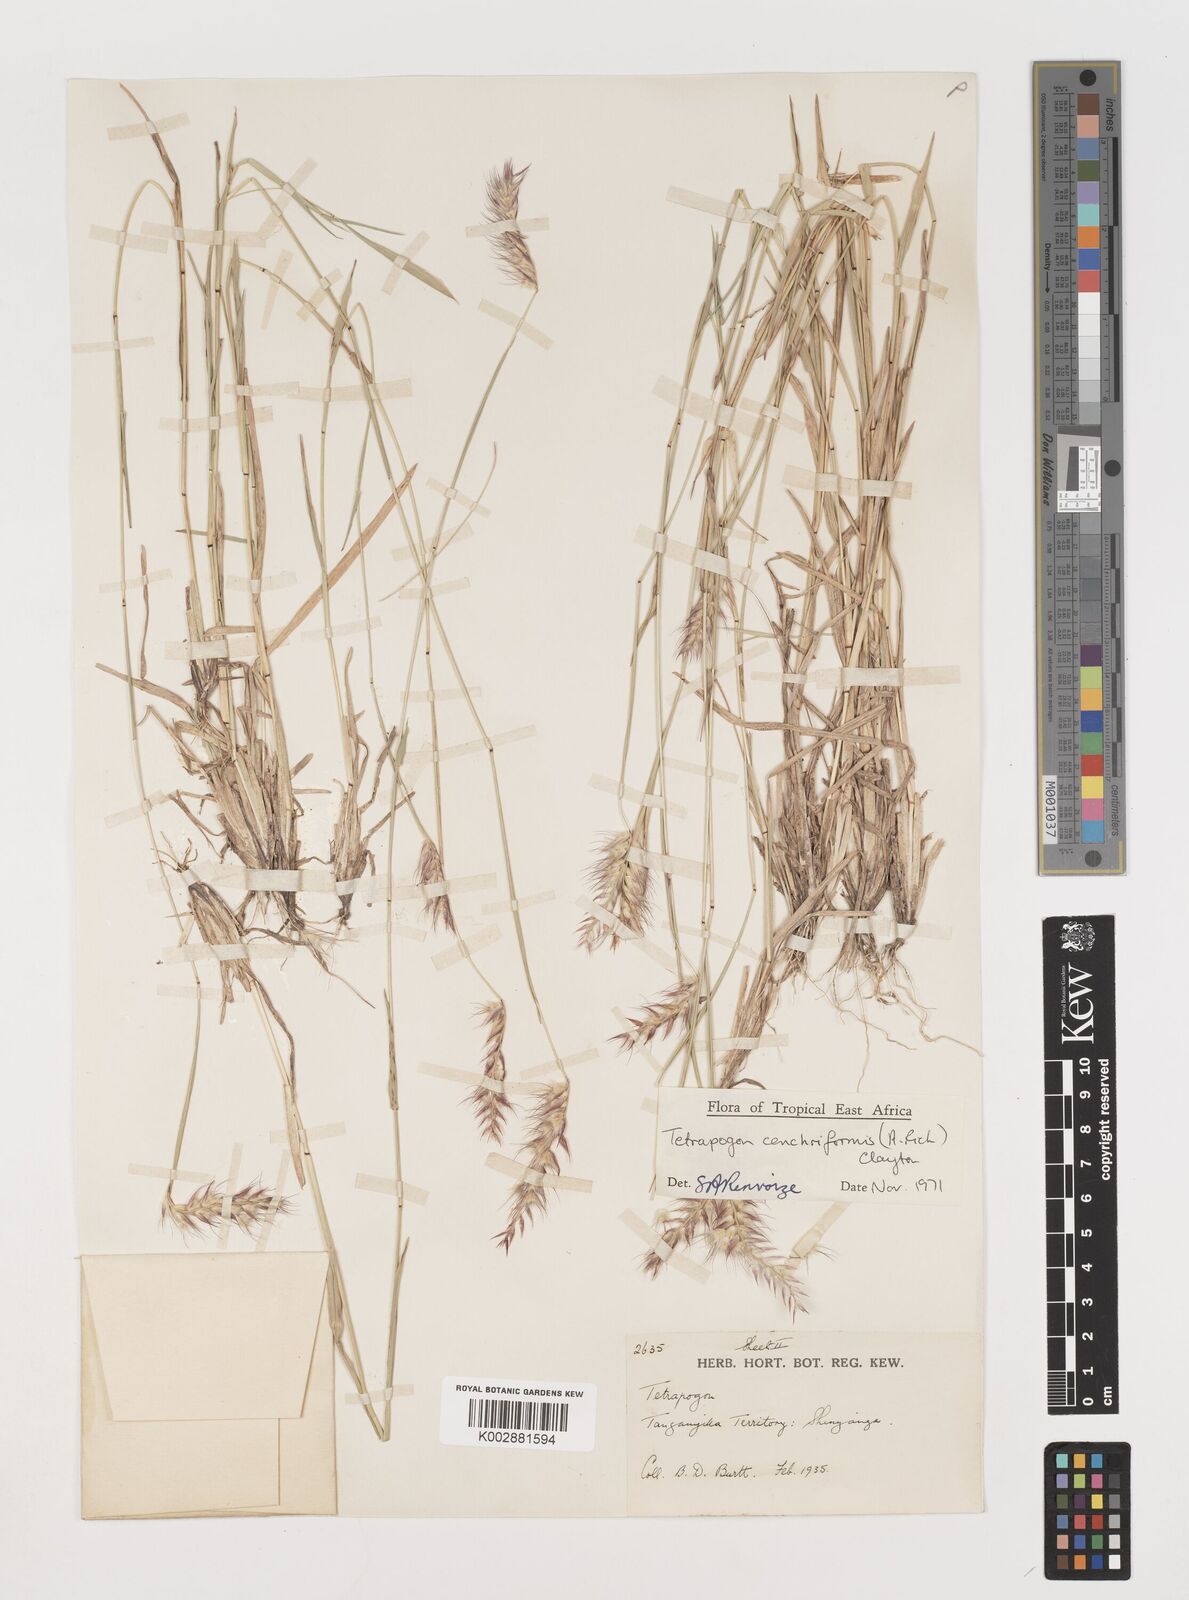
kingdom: Plantae
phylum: Tracheophyta
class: Liliopsida
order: Poales
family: Poaceae
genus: Tetrapogon
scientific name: Tetrapogon cenchriformis
